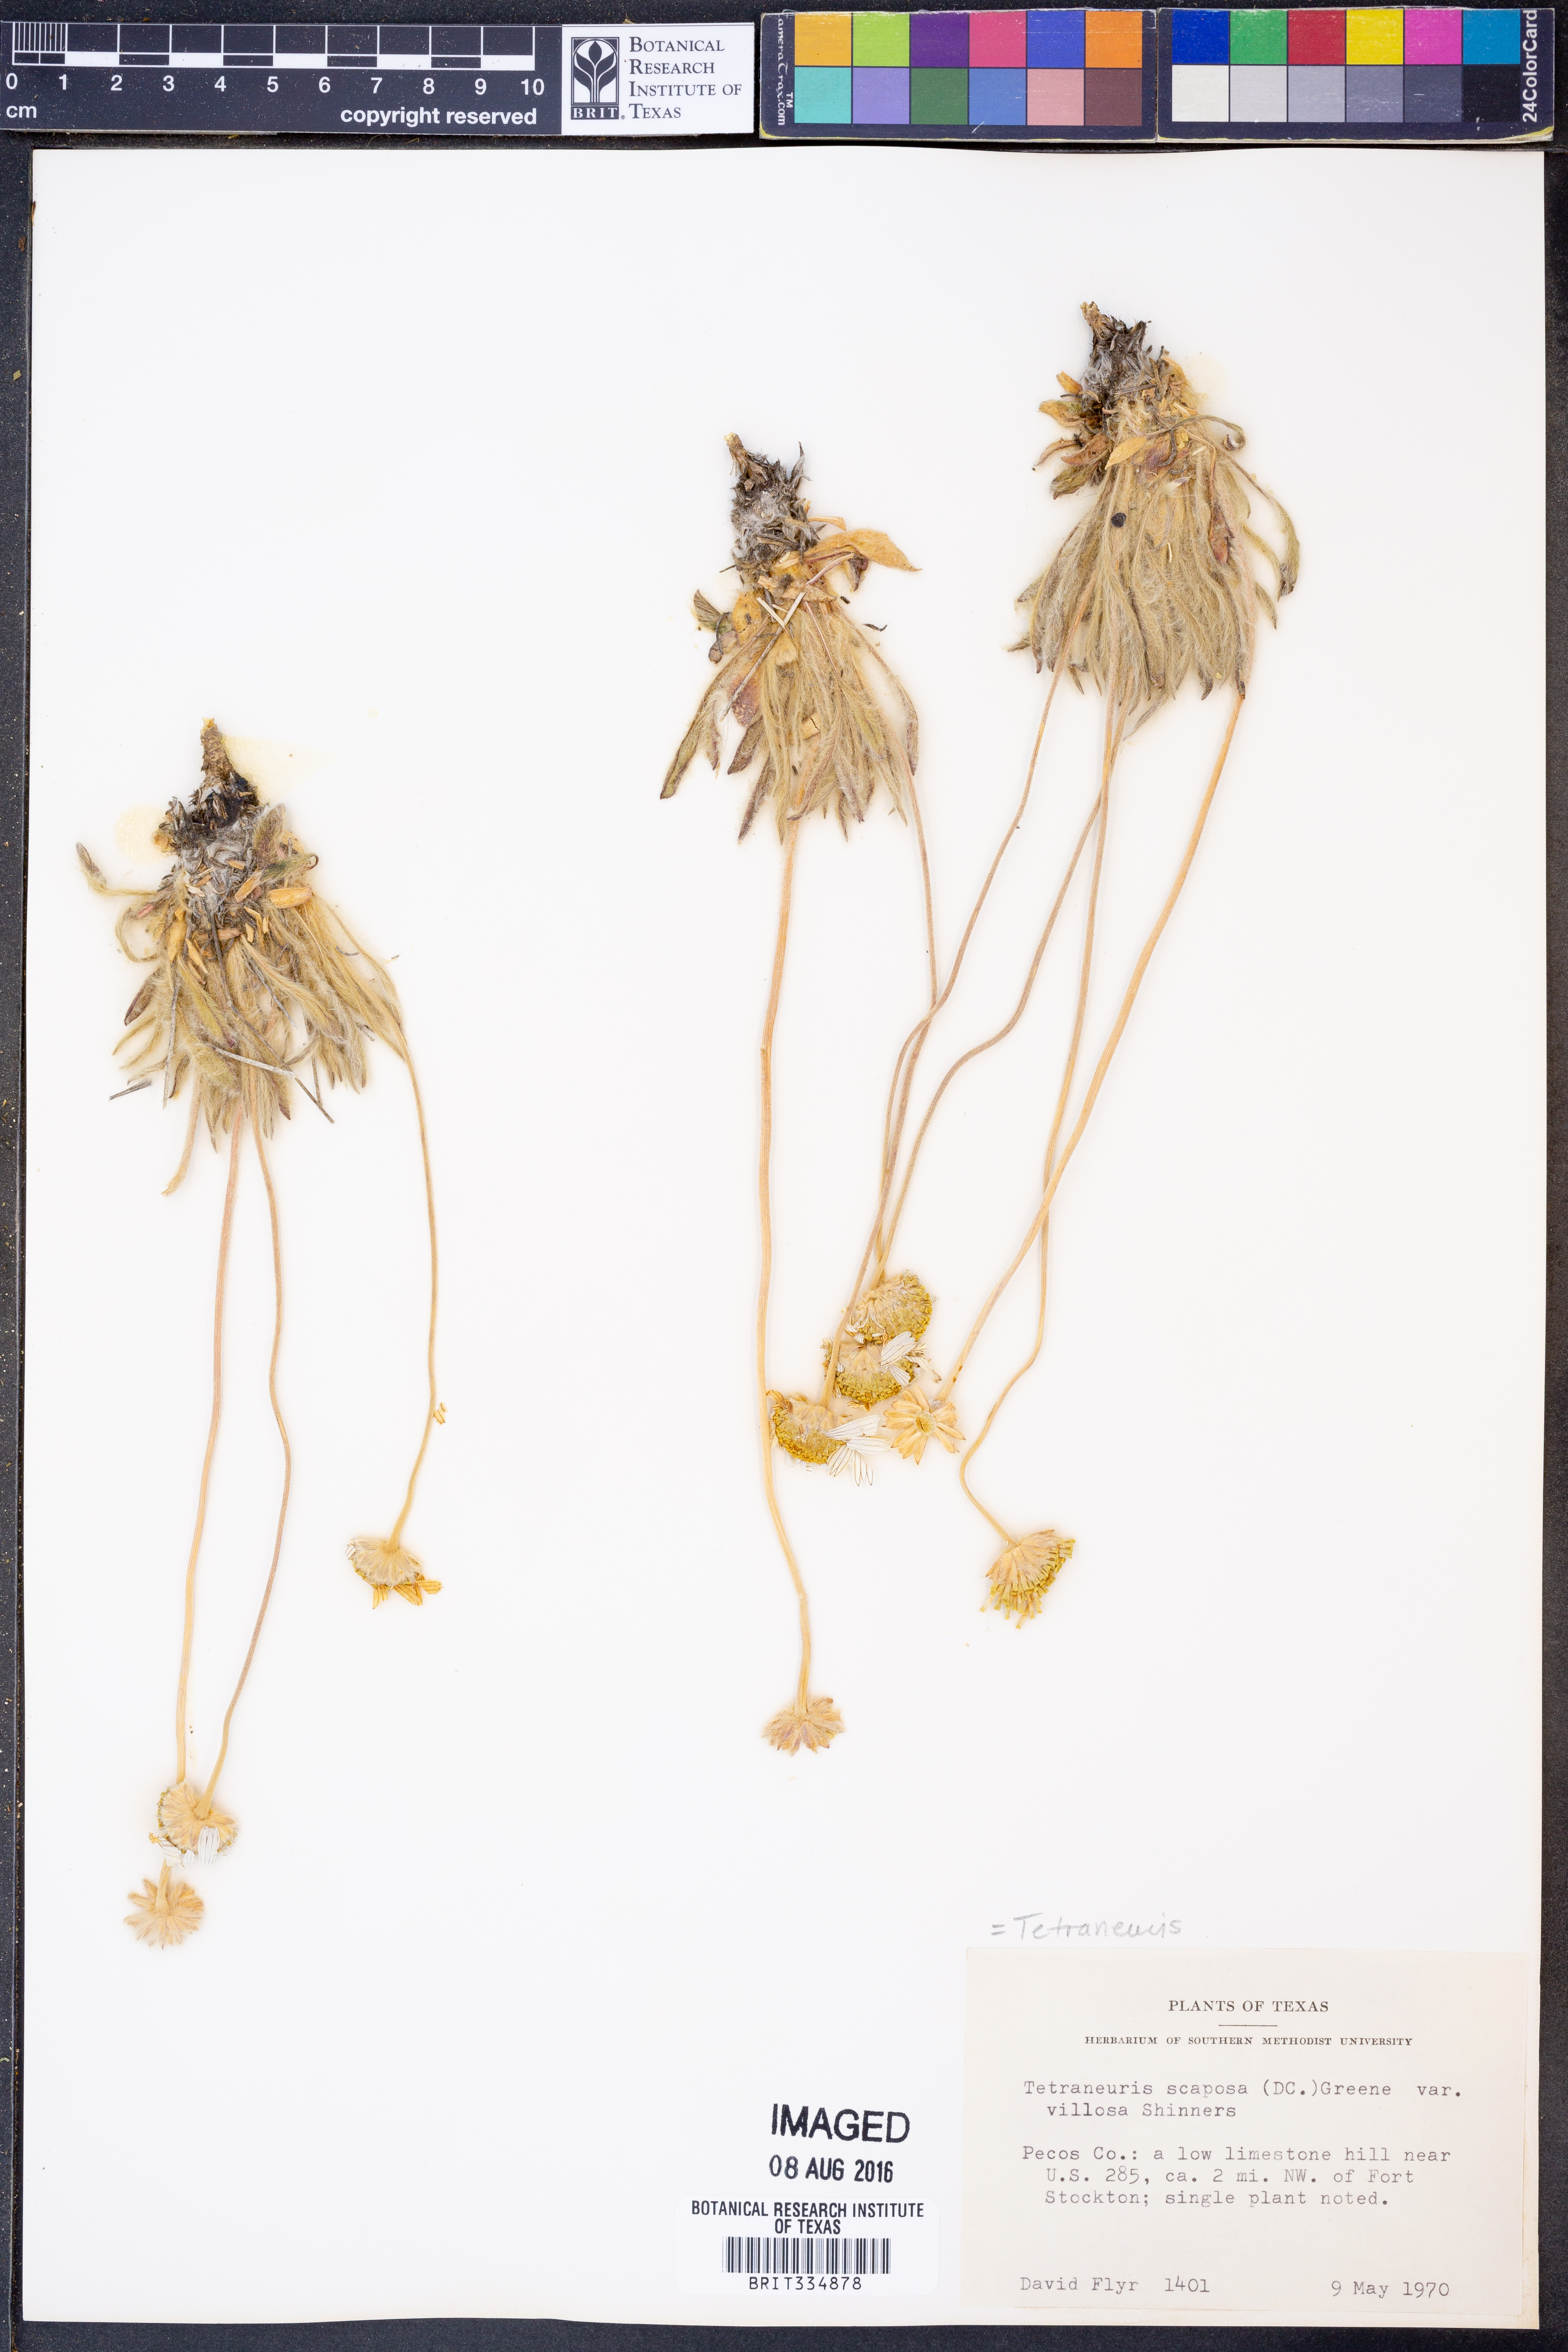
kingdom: Plantae
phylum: Tracheophyta
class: Magnoliopsida
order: Asterales
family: Asteraceae
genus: Tetraneuris
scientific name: Tetraneuris scaposa
